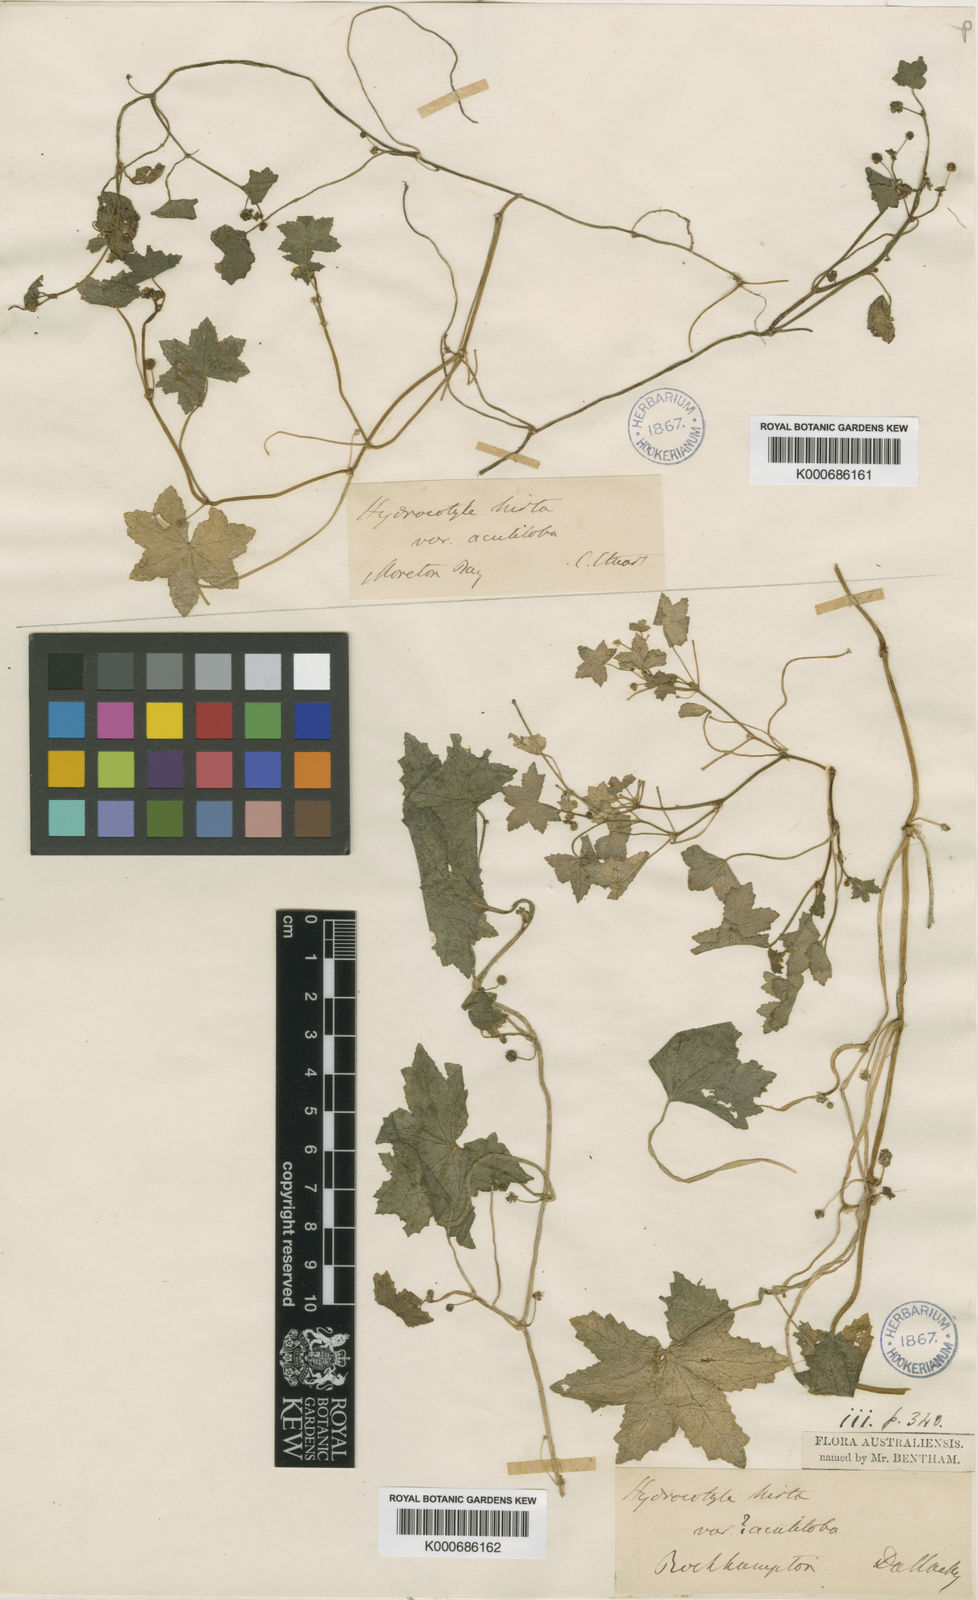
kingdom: Plantae
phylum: Tracheophyta
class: Magnoliopsida
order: Apiales
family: Araliaceae
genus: Hydrocotyle
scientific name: Hydrocotyle acutiloba
